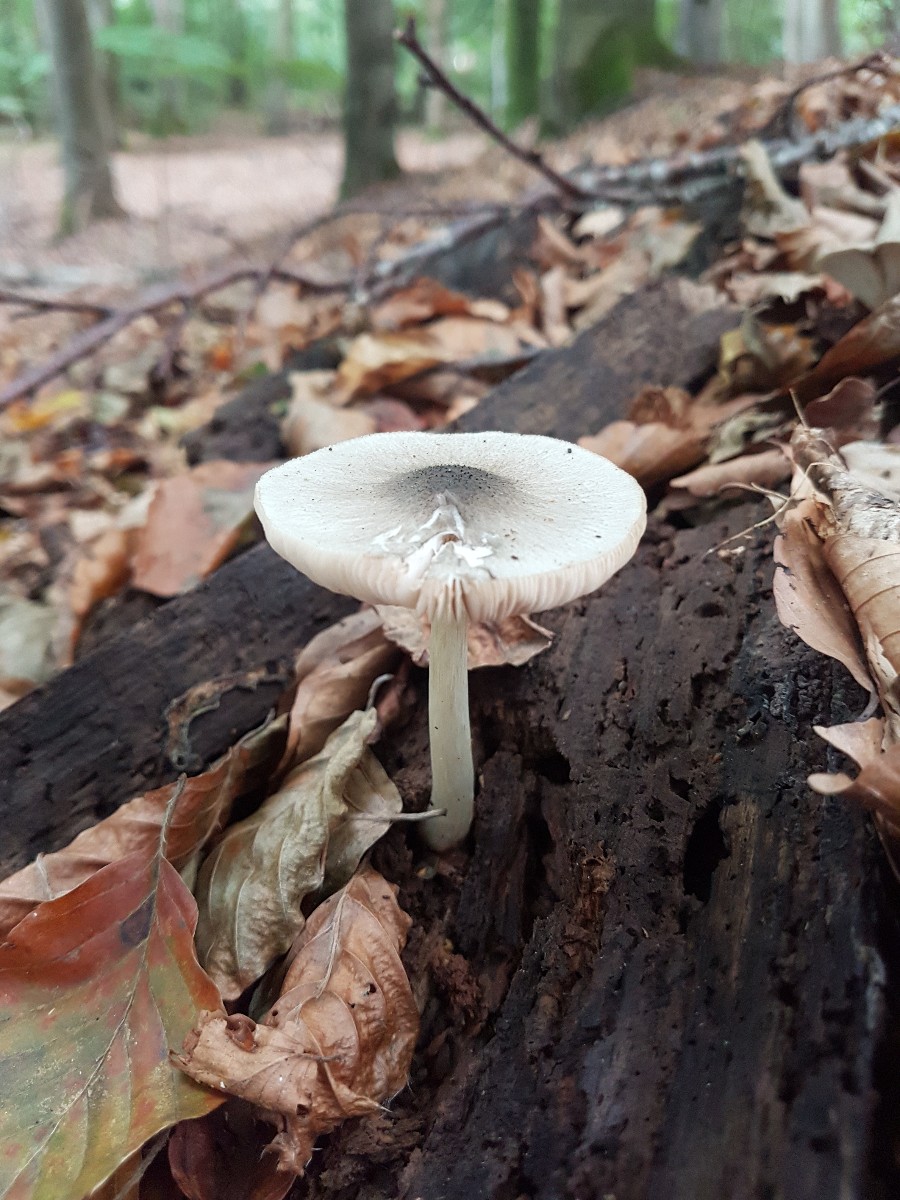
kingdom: Fungi
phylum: Basidiomycota
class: Agaricomycetes
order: Agaricales
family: Pluteaceae
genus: Pluteus
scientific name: Pluteus salicinus
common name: stiv skærmhat
